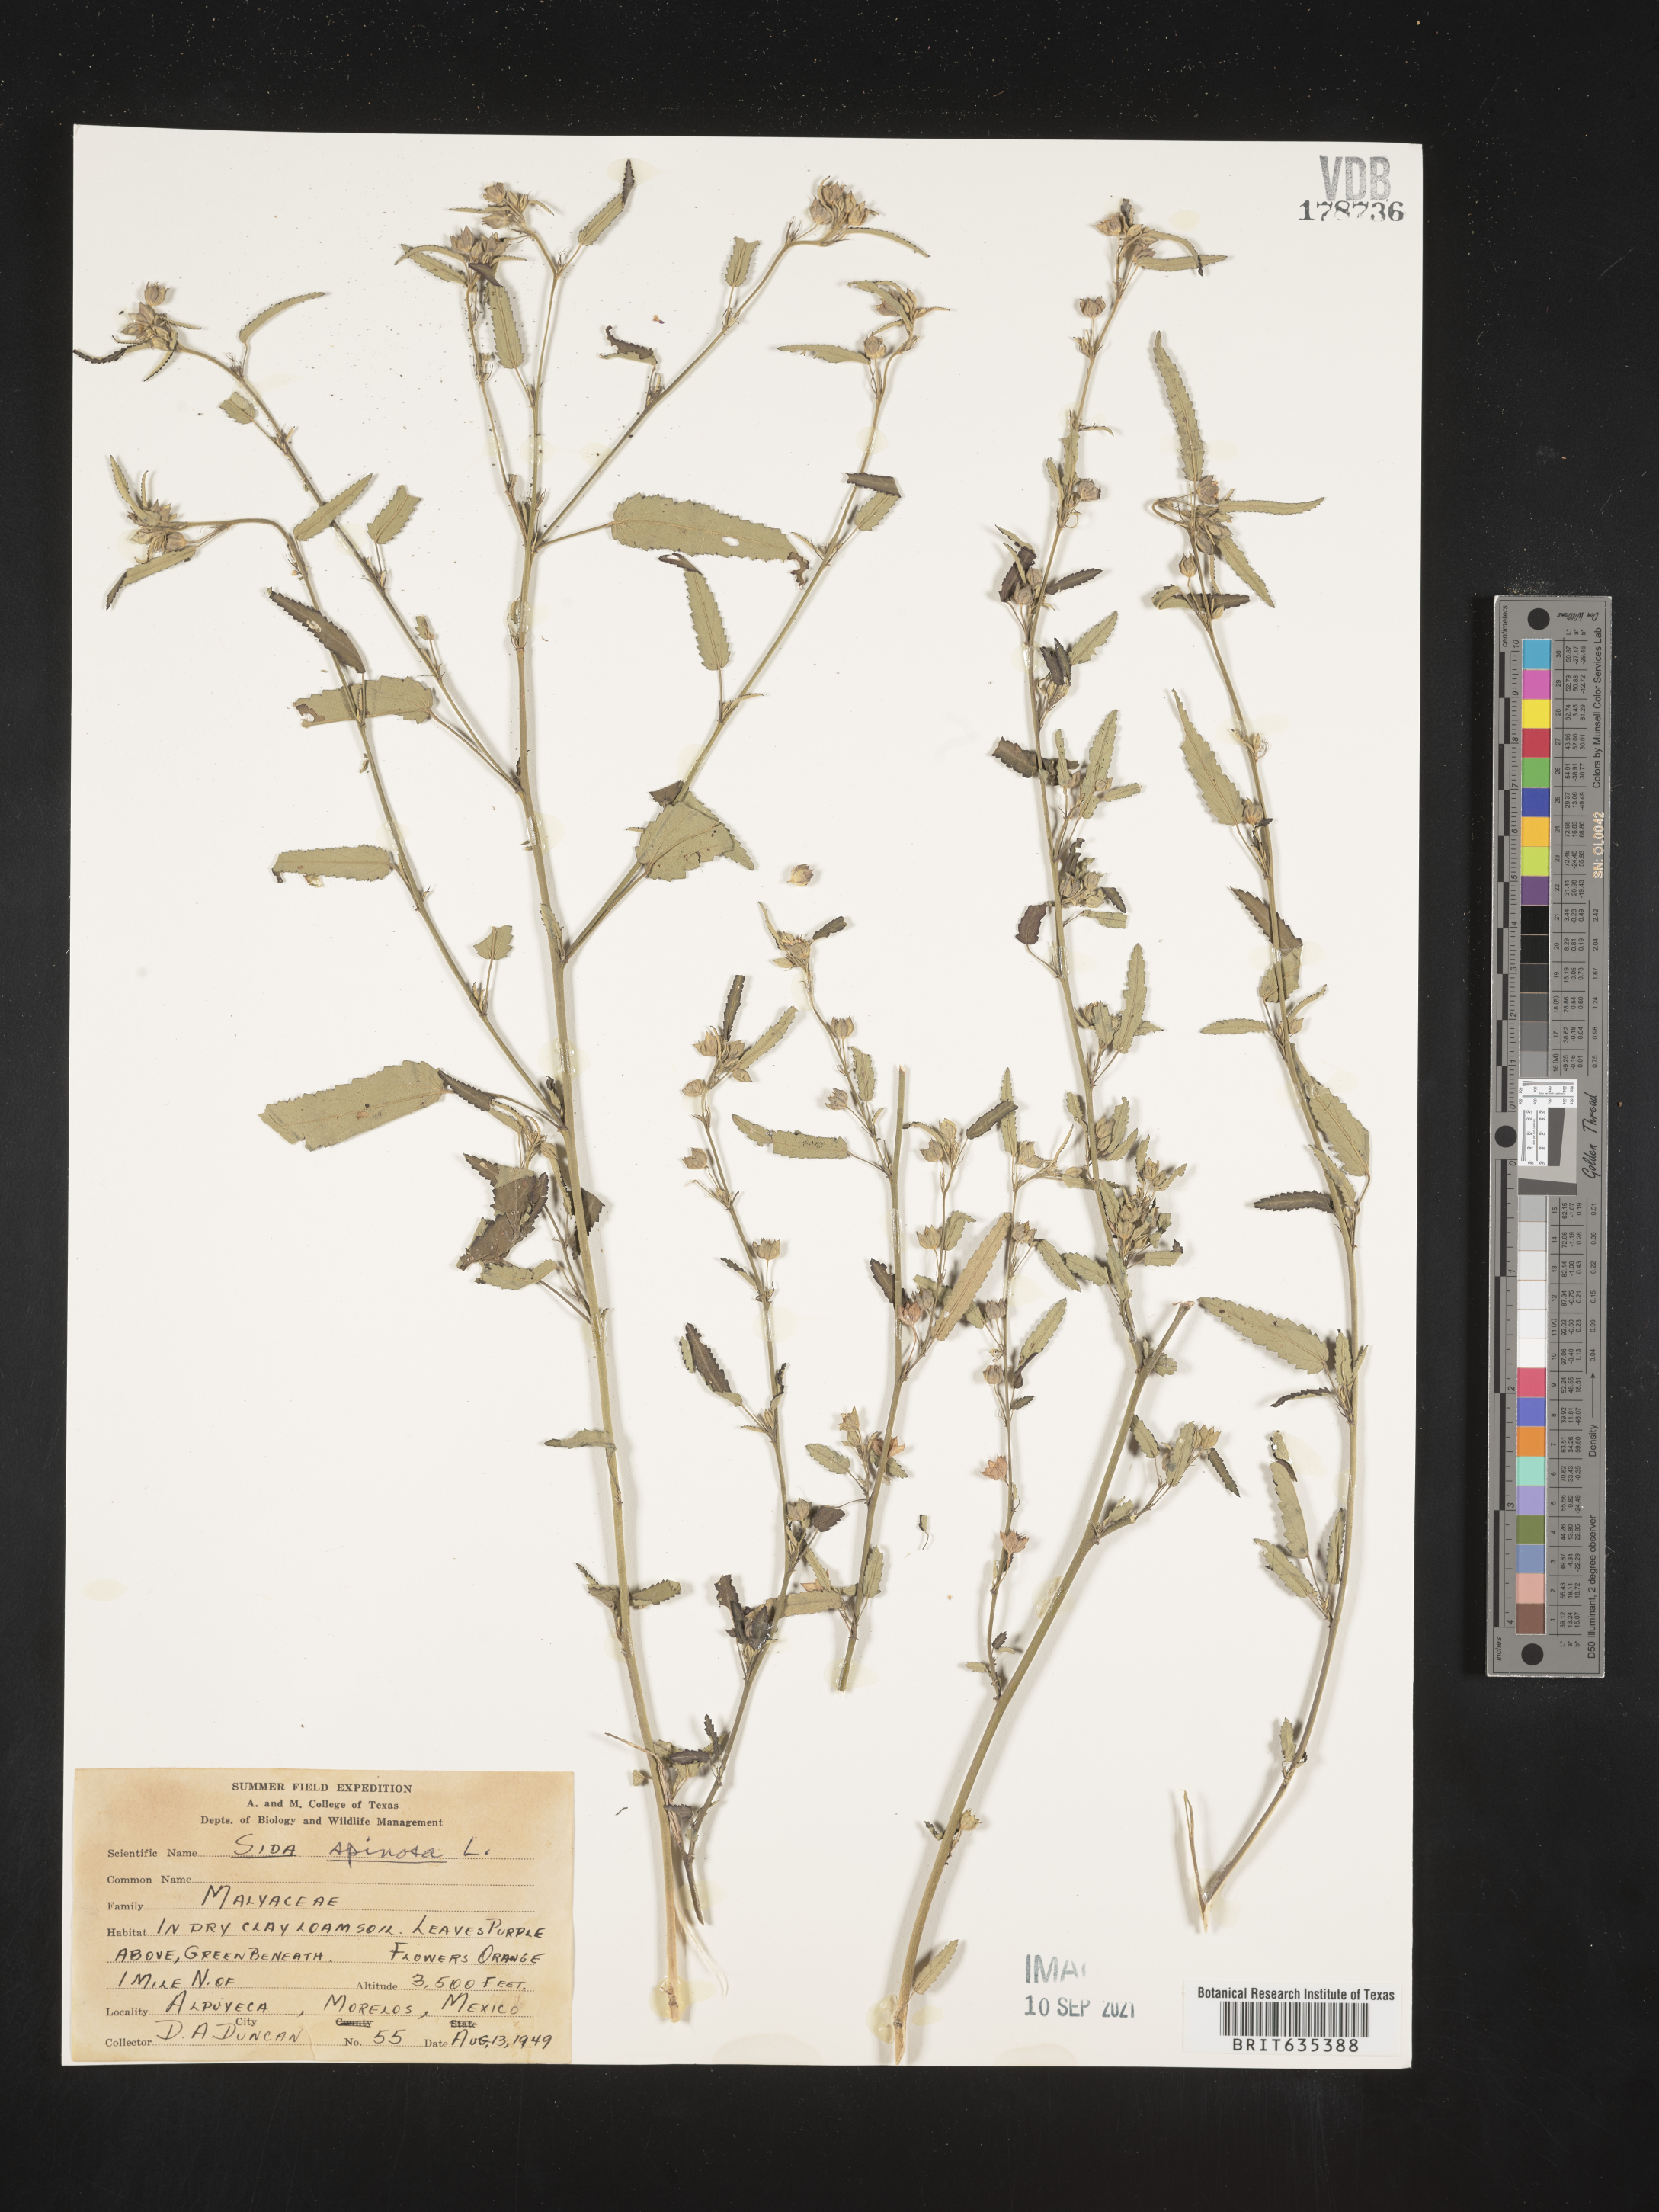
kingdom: Plantae
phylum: Tracheophyta
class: Magnoliopsida
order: Malvales
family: Malvaceae
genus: Sida
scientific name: Sida
